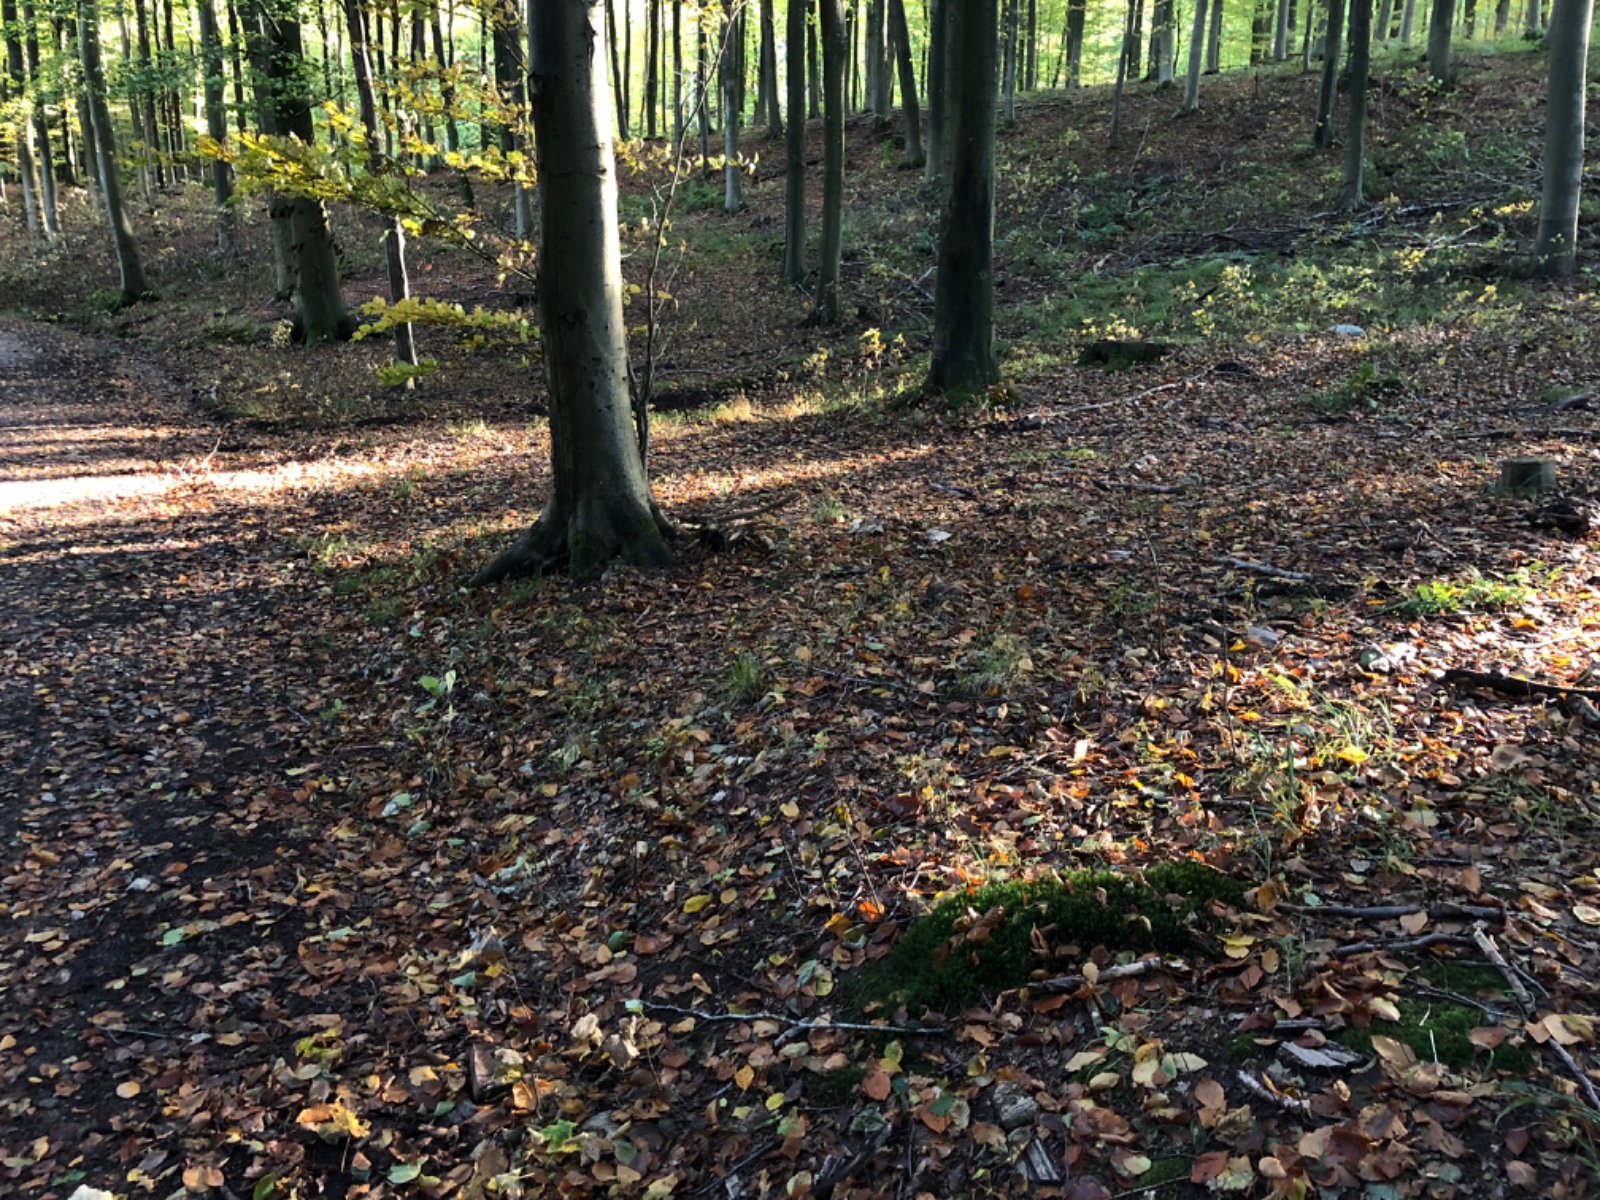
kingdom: Fungi
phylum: Basidiomycota
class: Agaricomycetes
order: Agaricales
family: Hygrophoraceae
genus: Chromosera
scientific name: Chromosera viola
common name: viol-vokshat
